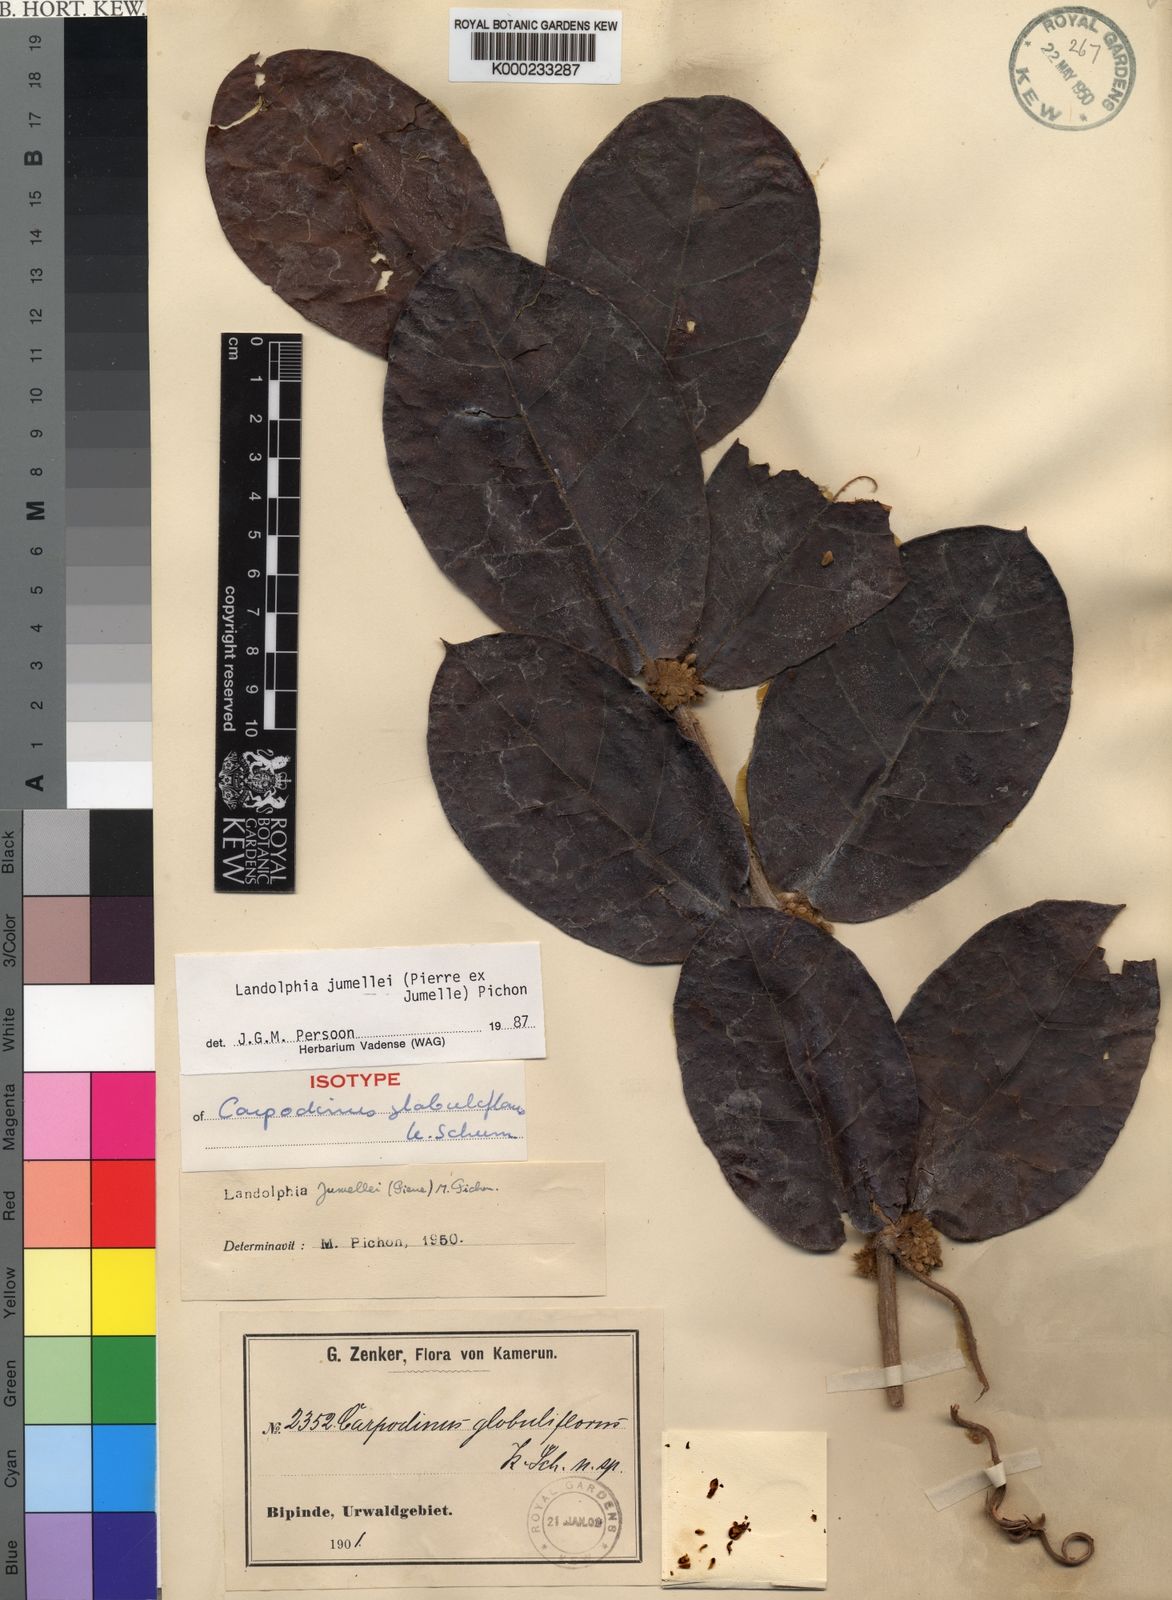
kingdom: Plantae
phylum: Tracheophyta
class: Magnoliopsida
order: Gentianales
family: Apocynaceae
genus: Landolphia
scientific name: Landolphia jumellei
